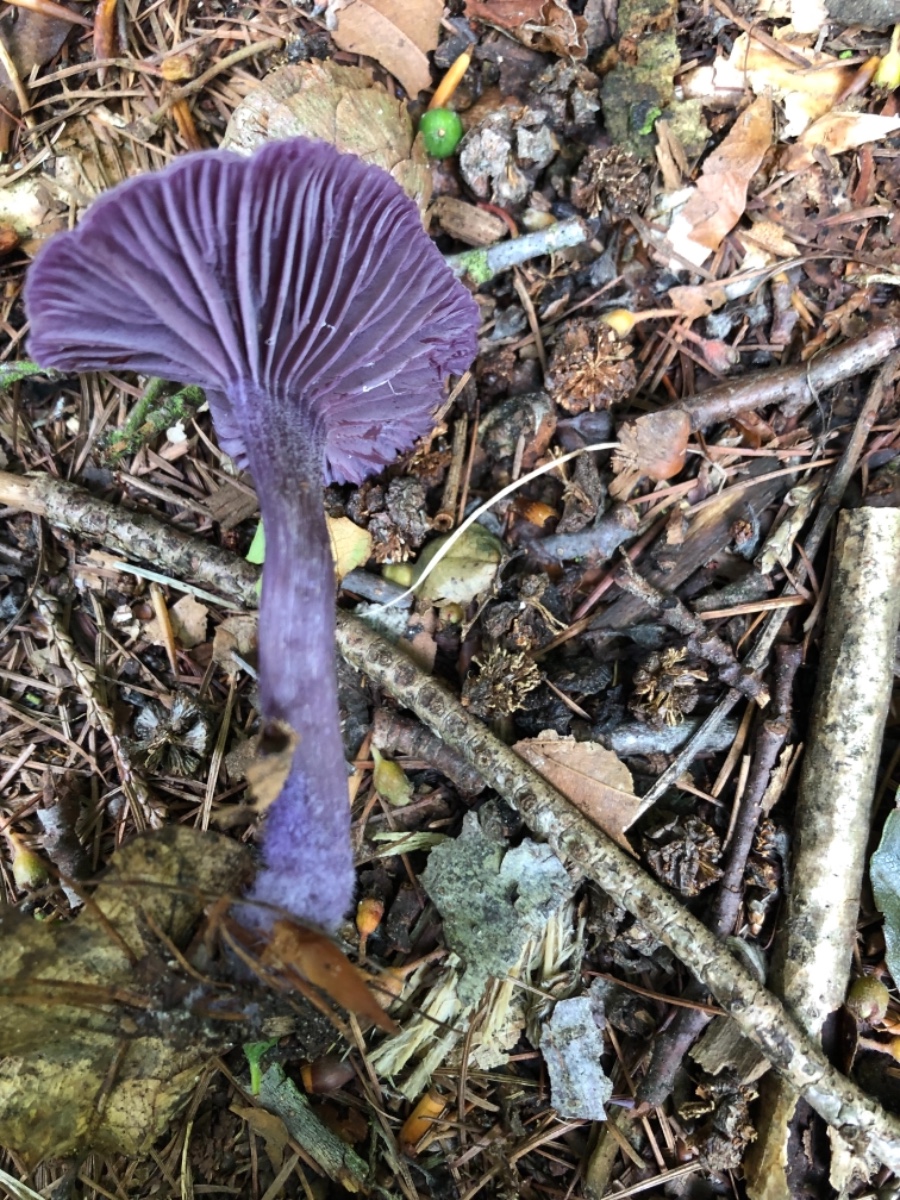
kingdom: Fungi
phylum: Basidiomycota
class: Agaricomycetes
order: Agaricales
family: Hydnangiaceae
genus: Laccaria
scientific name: Laccaria amethystina
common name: violet ametysthat
